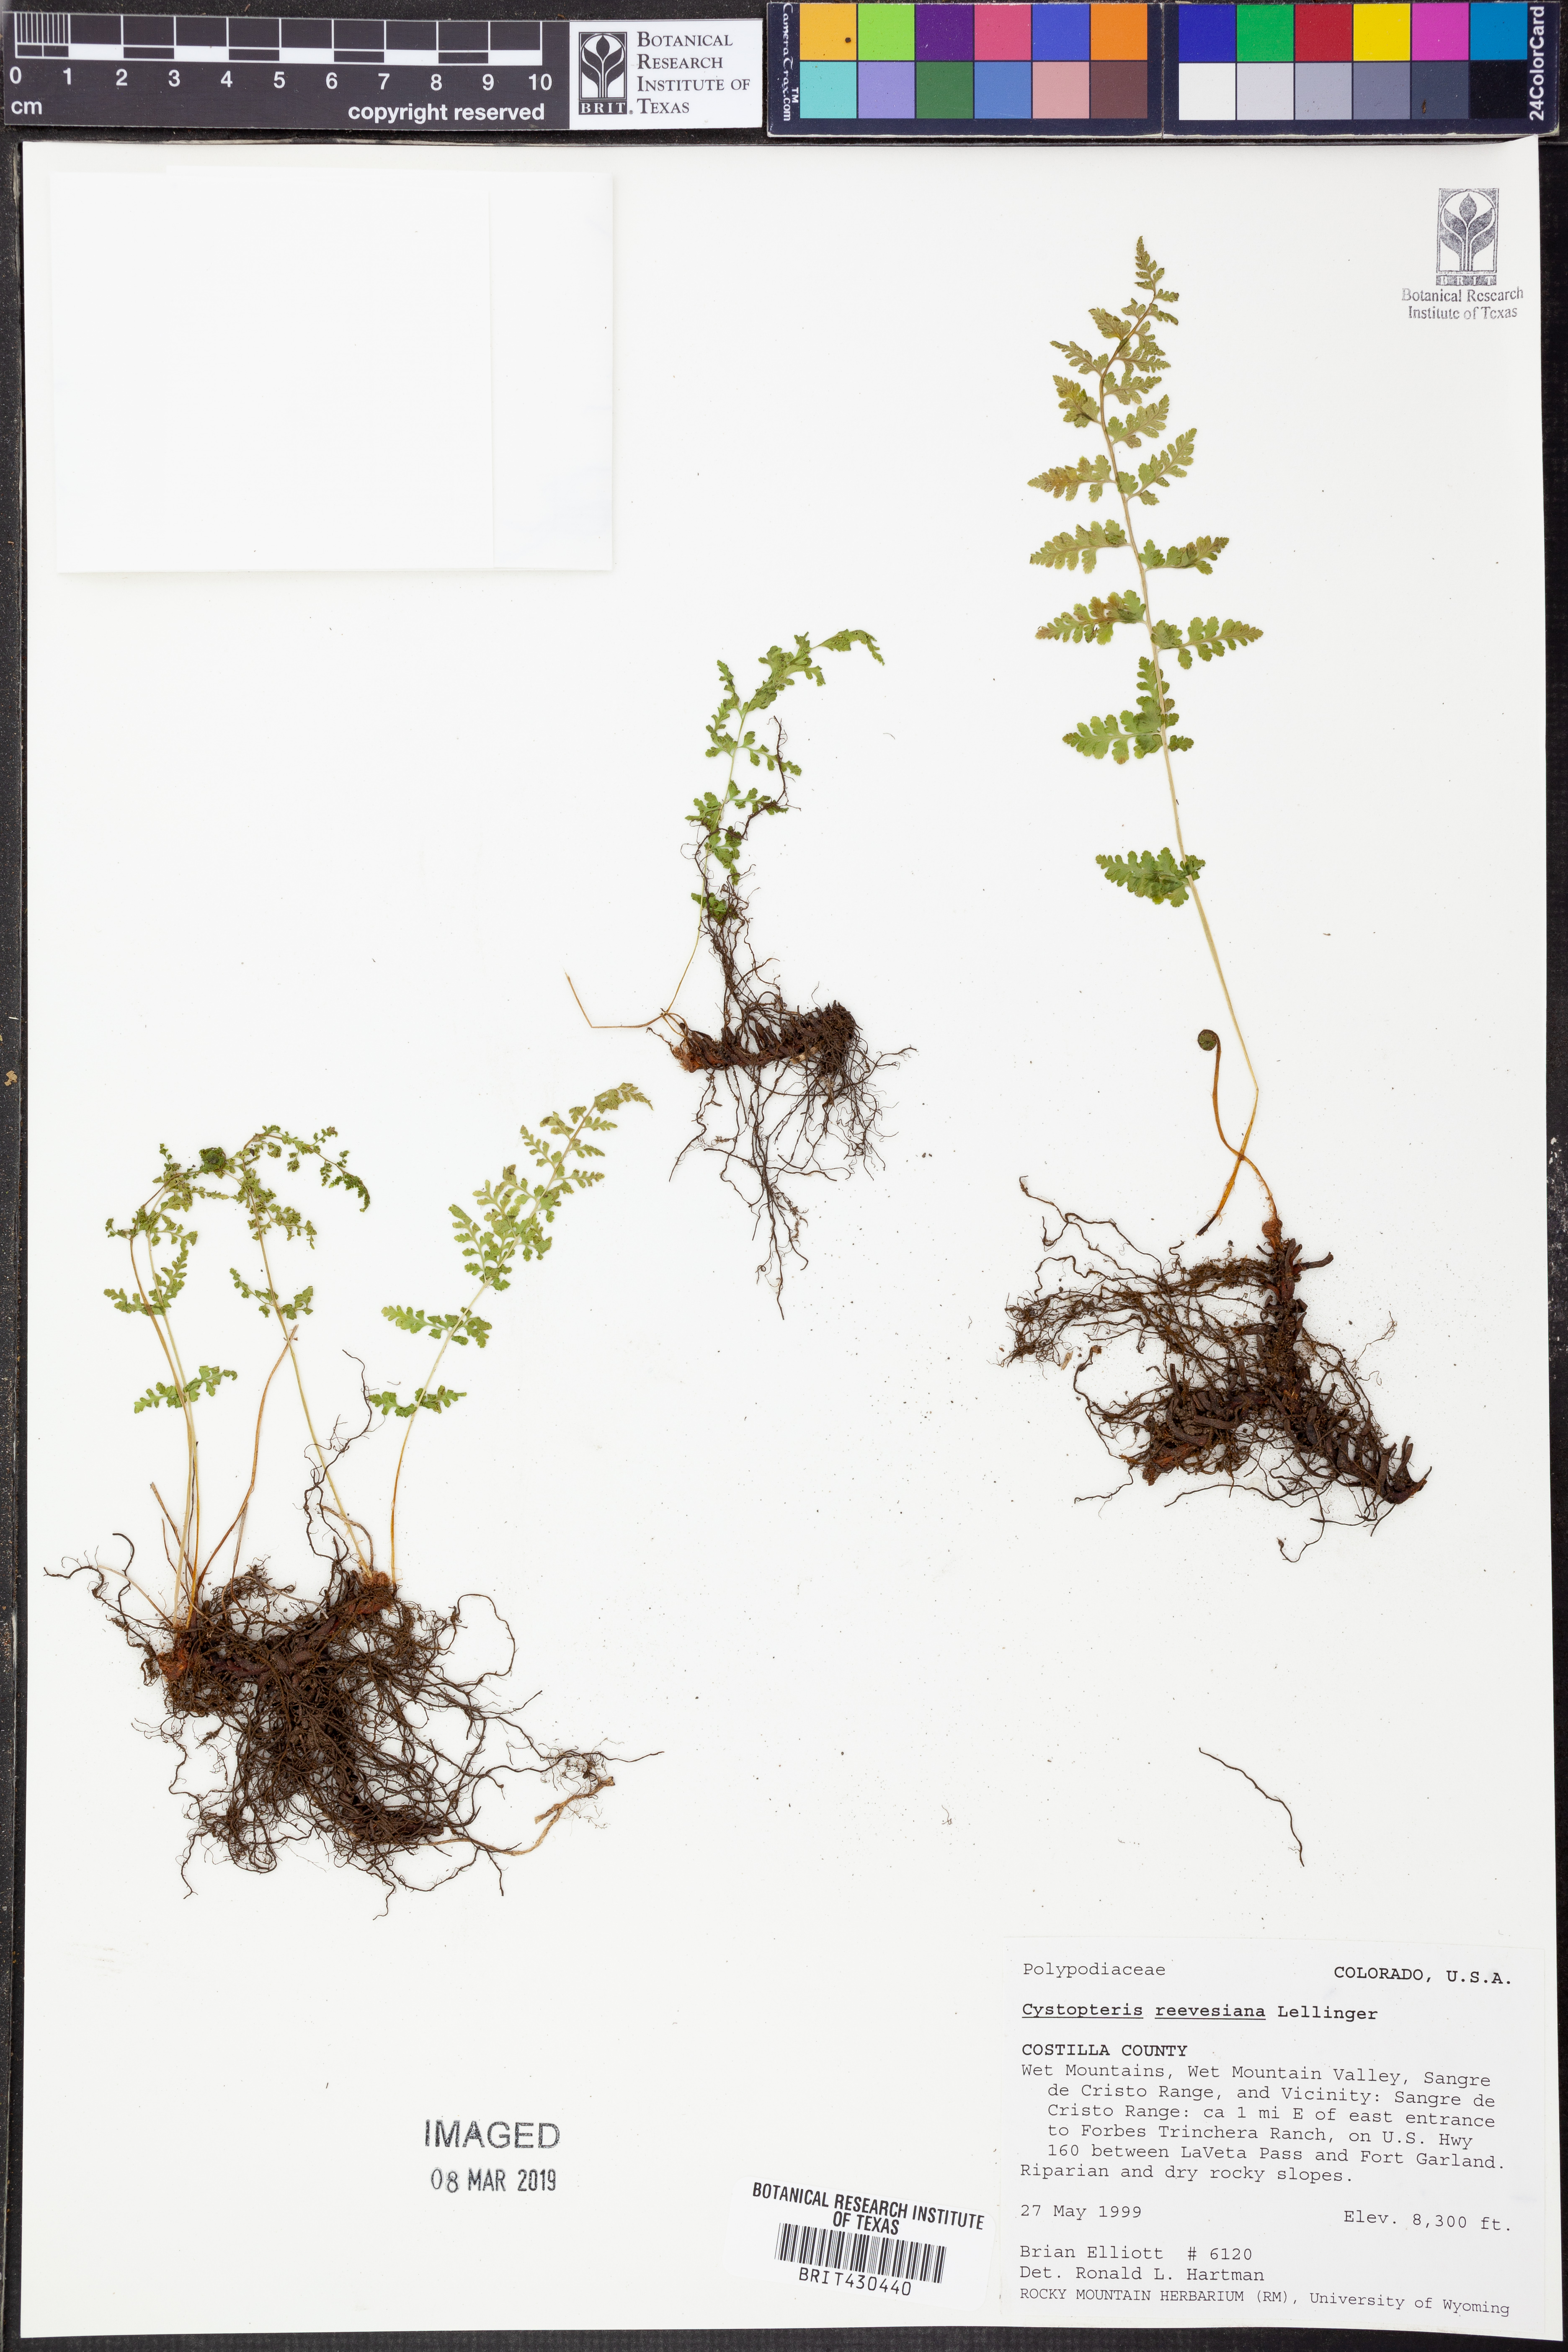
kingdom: Plantae
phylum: Tracheophyta
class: Polypodiopsida
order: Polypodiales
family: Cystopteridaceae
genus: Cystopteris
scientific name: Cystopteris reevesiana
